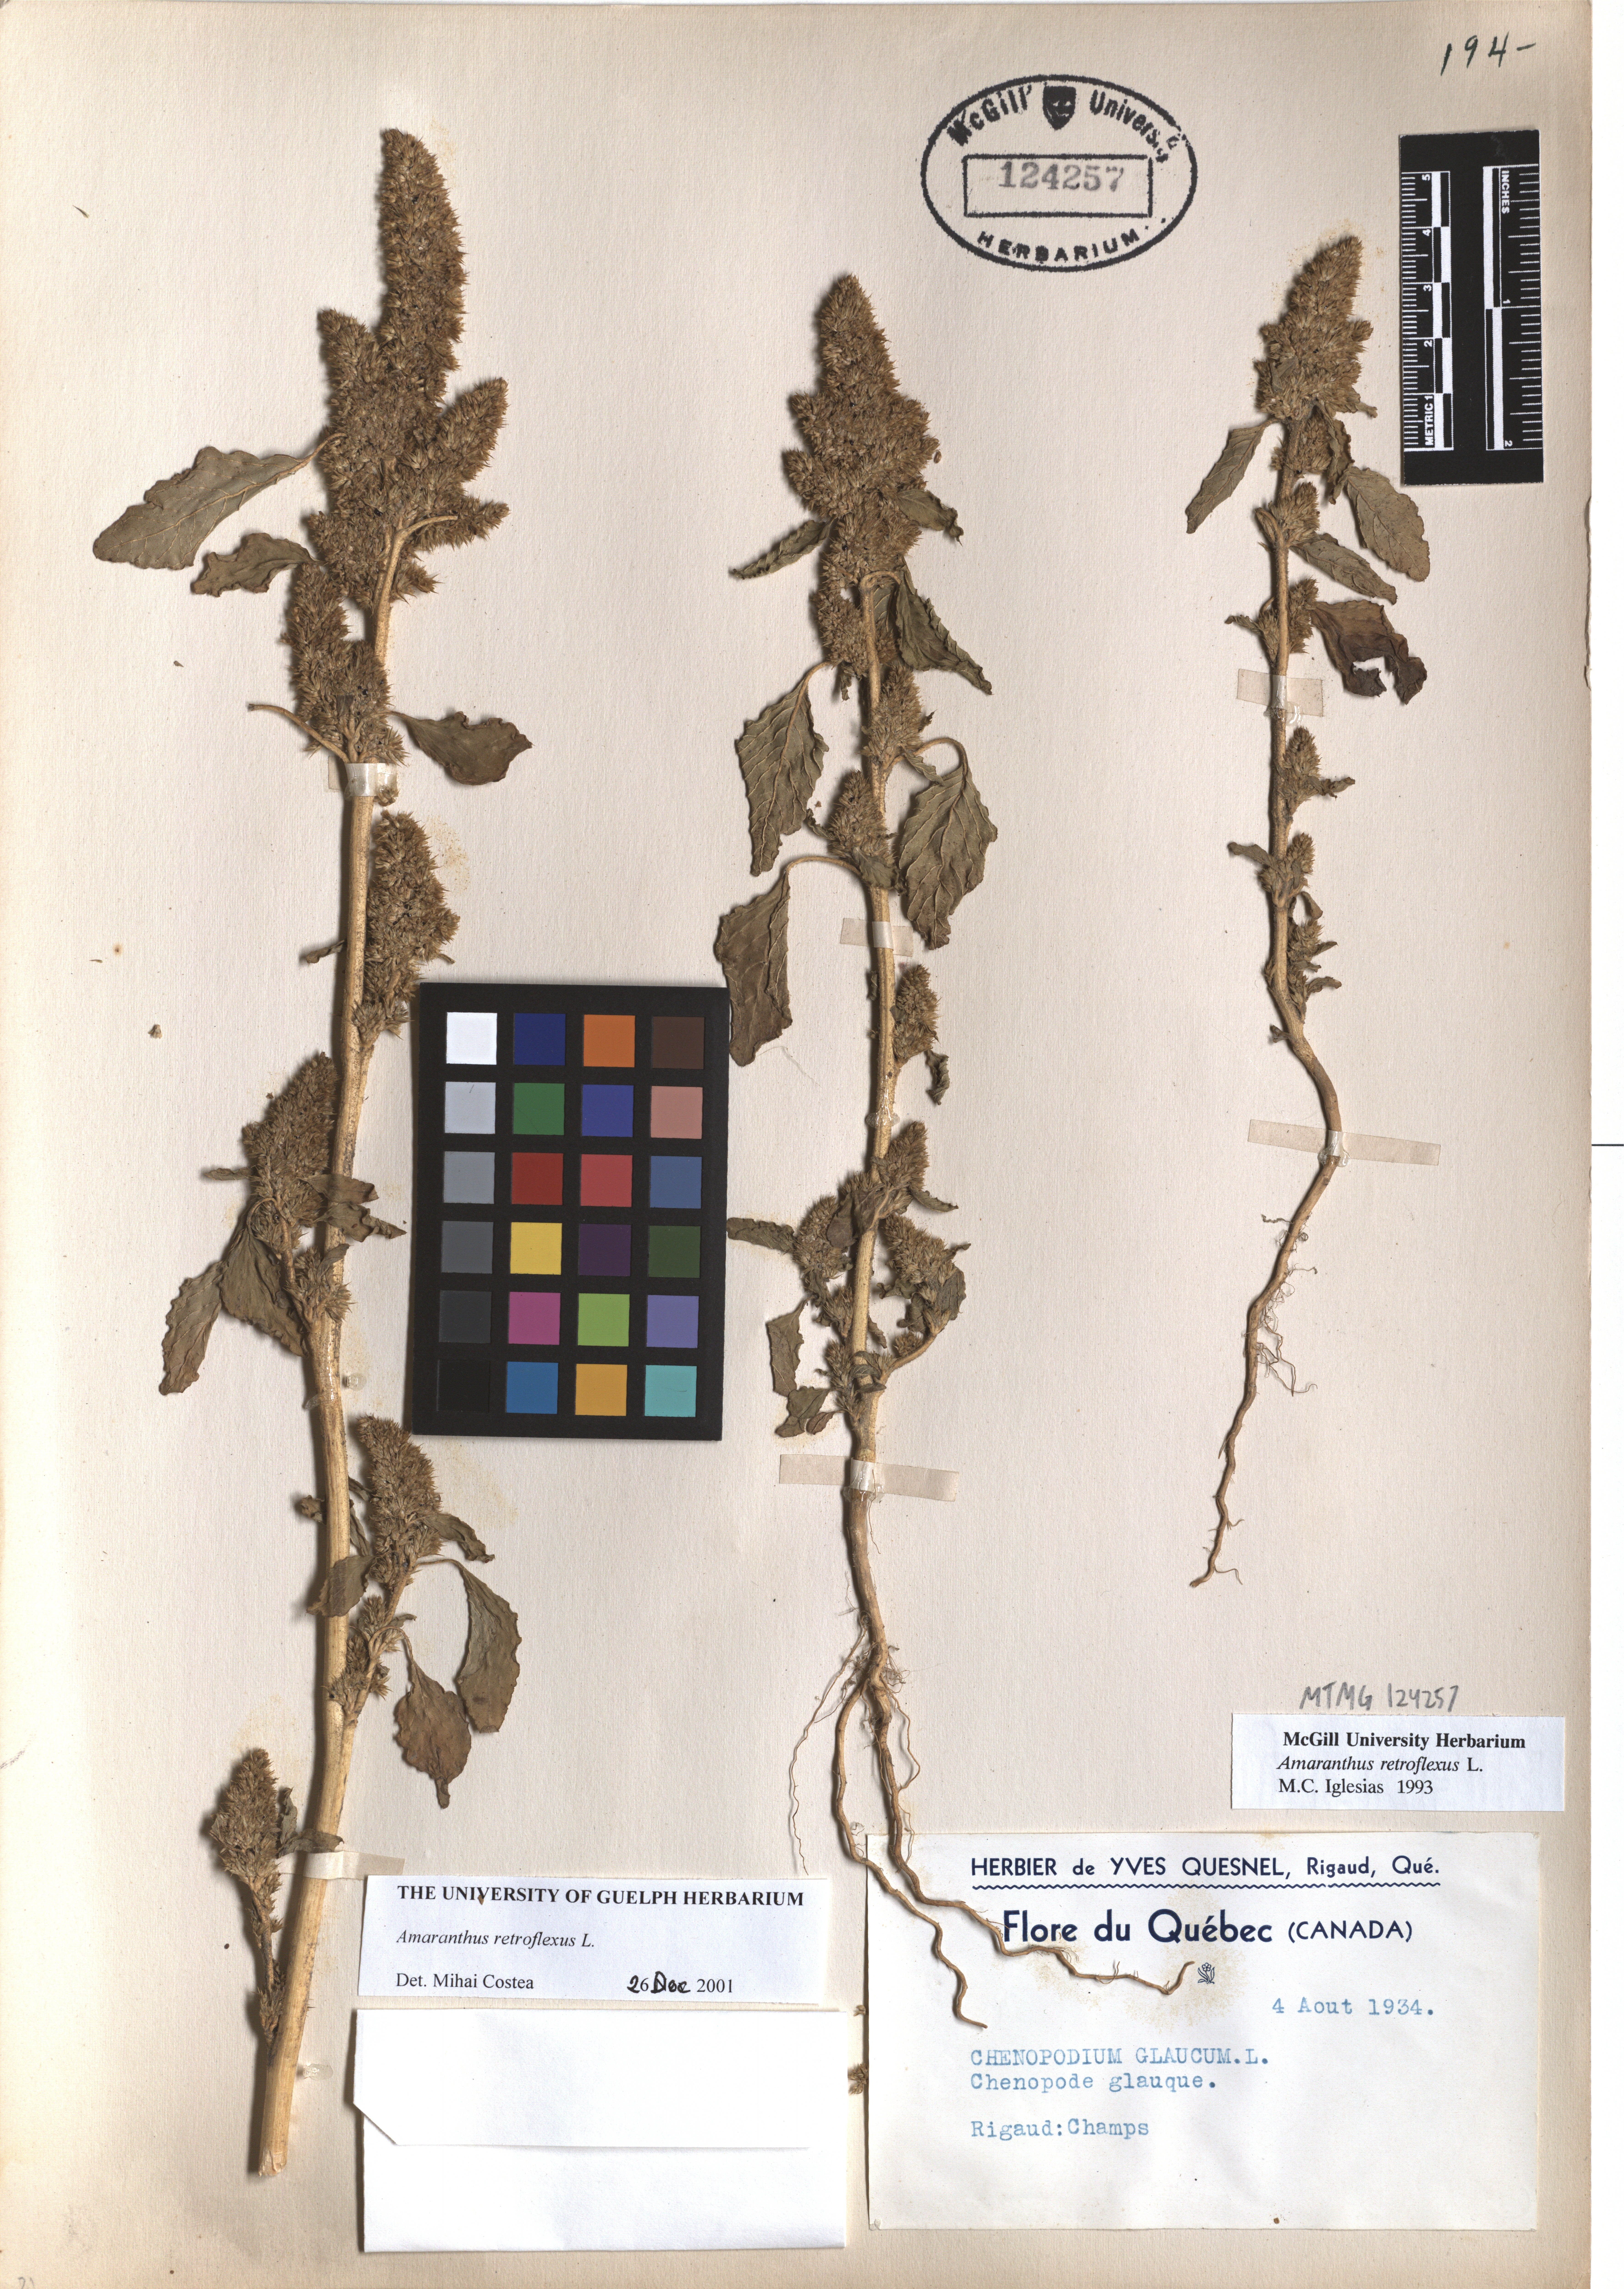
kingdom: Plantae
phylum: Tracheophyta
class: Magnoliopsida
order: Caryophyllales
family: Amaranthaceae
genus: Amaranthus
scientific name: Amaranthus retroflexus
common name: Redroot amaranth
